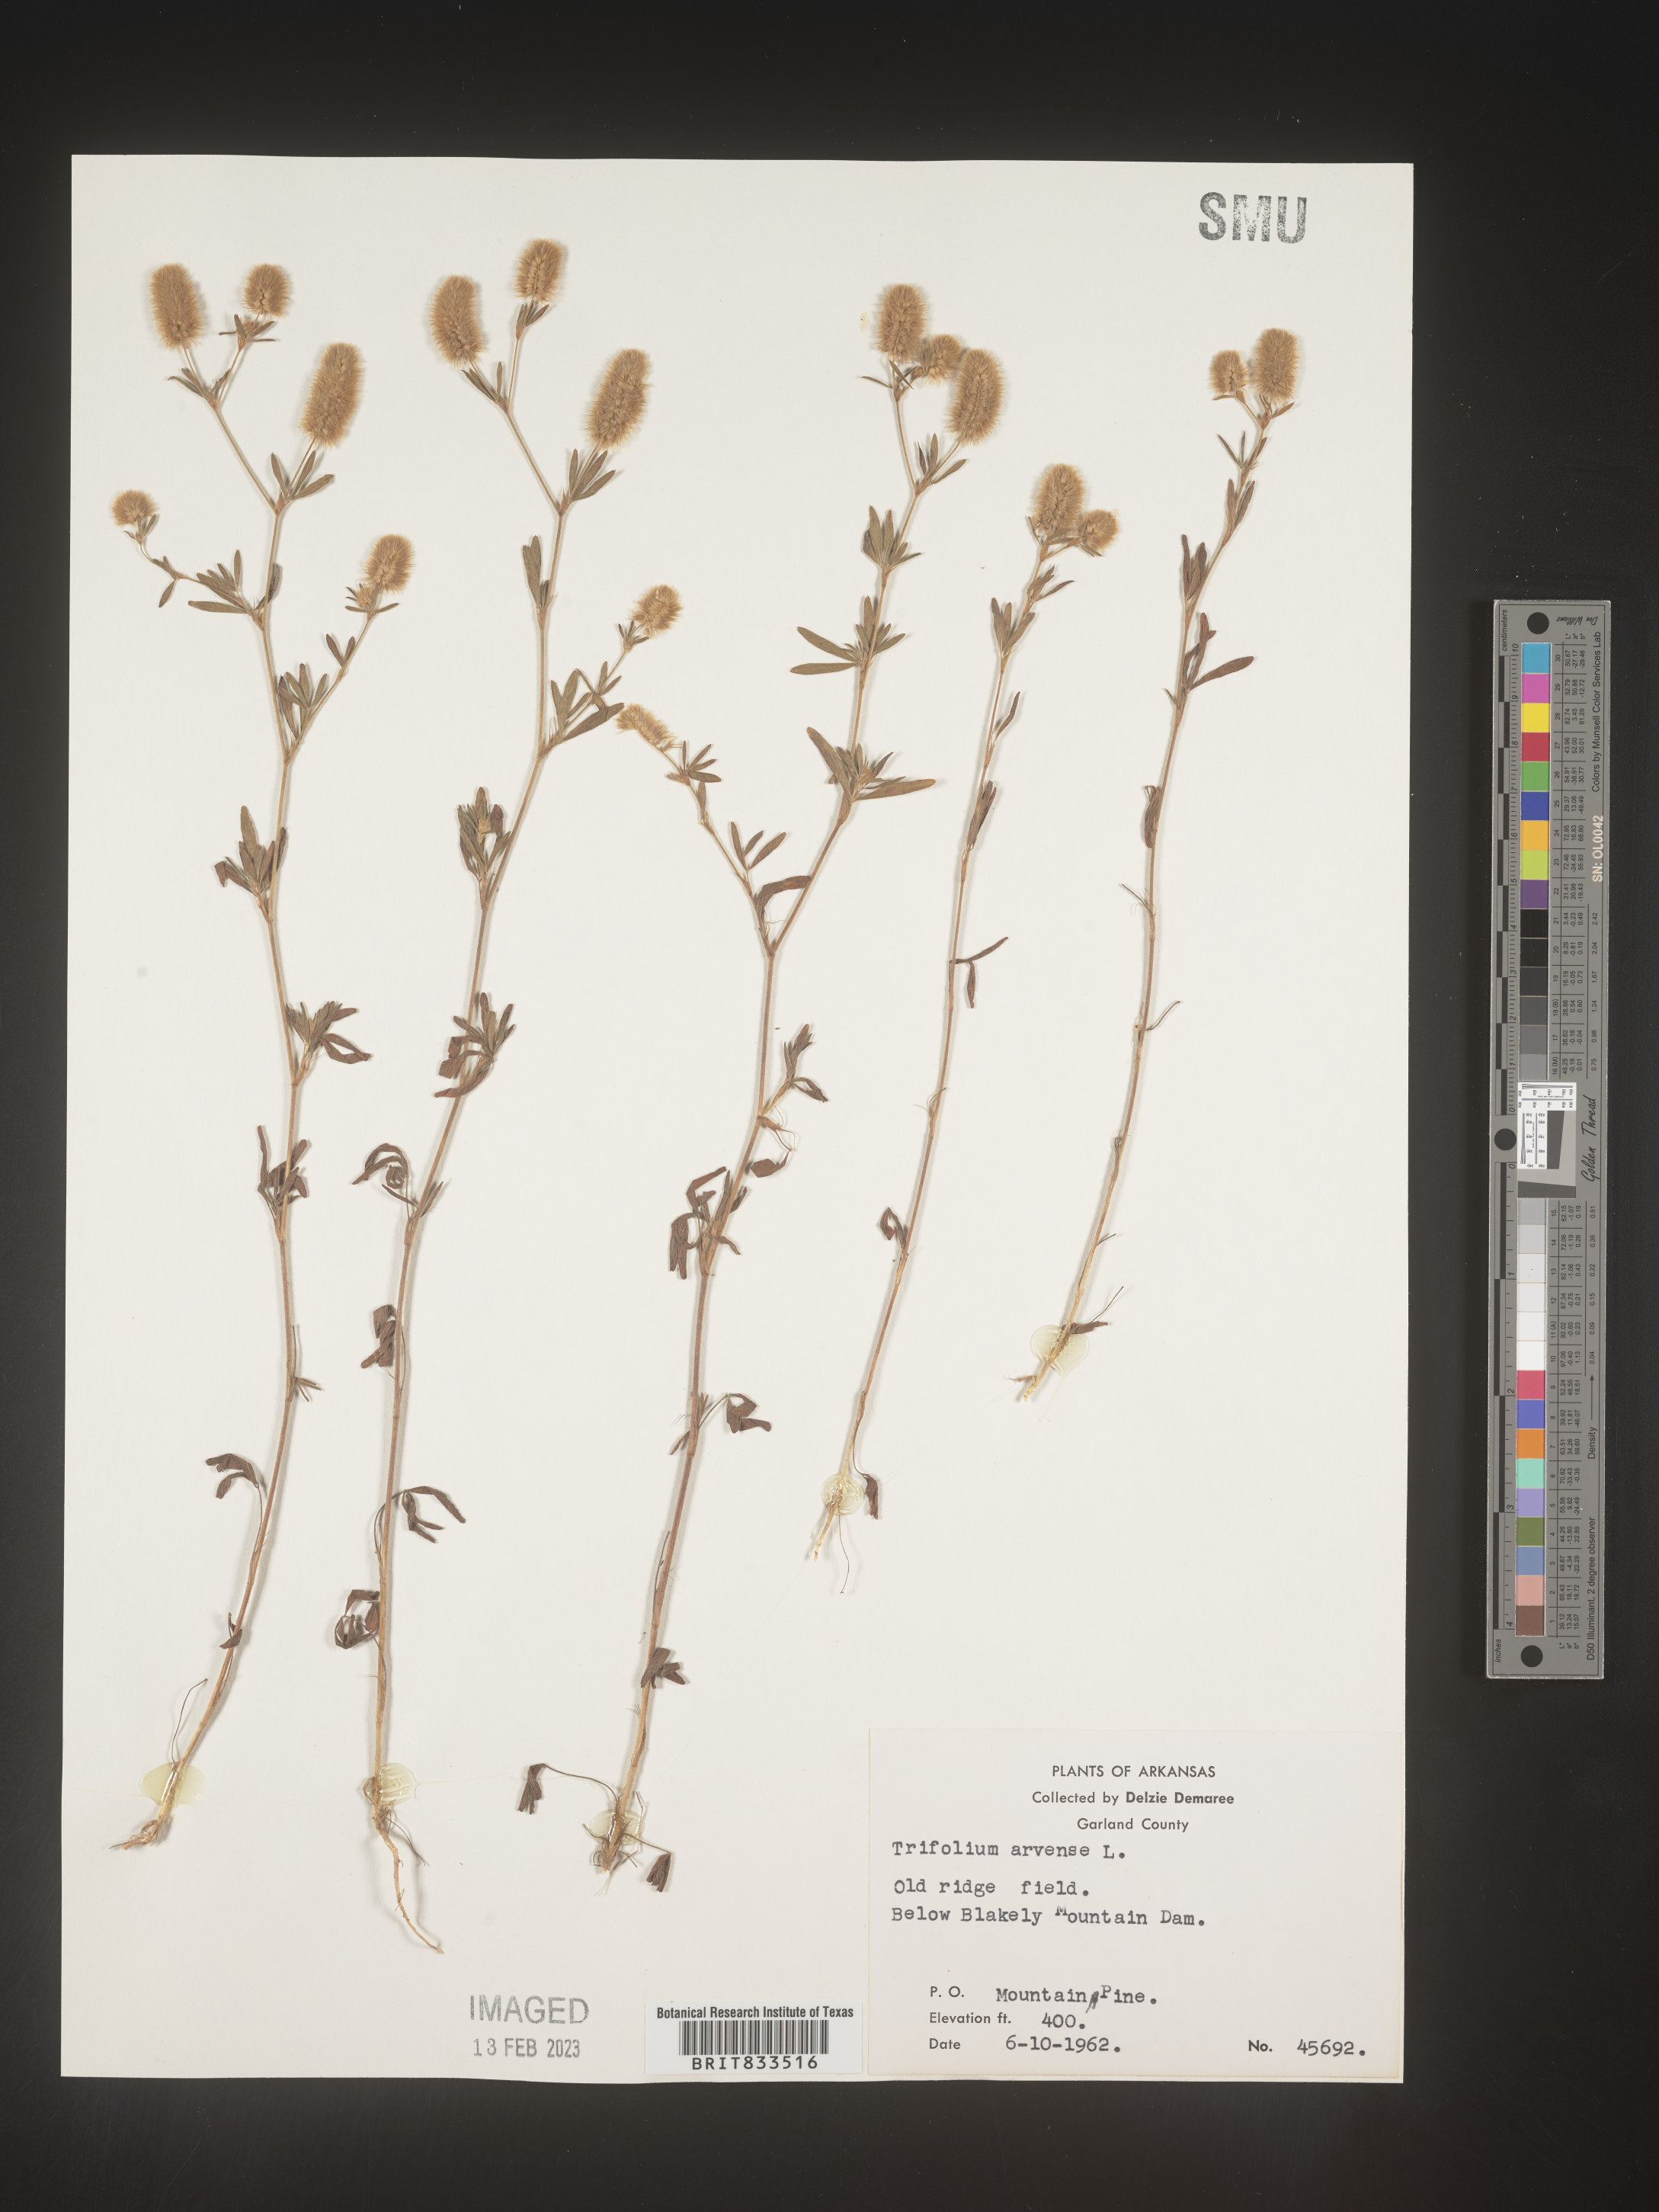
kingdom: Plantae
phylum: Tracheophyta
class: Magnoliopsida
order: Fabales
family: Fabaceae
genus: Trifolium
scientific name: Trifolium arvense
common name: Hare's-foot clover
